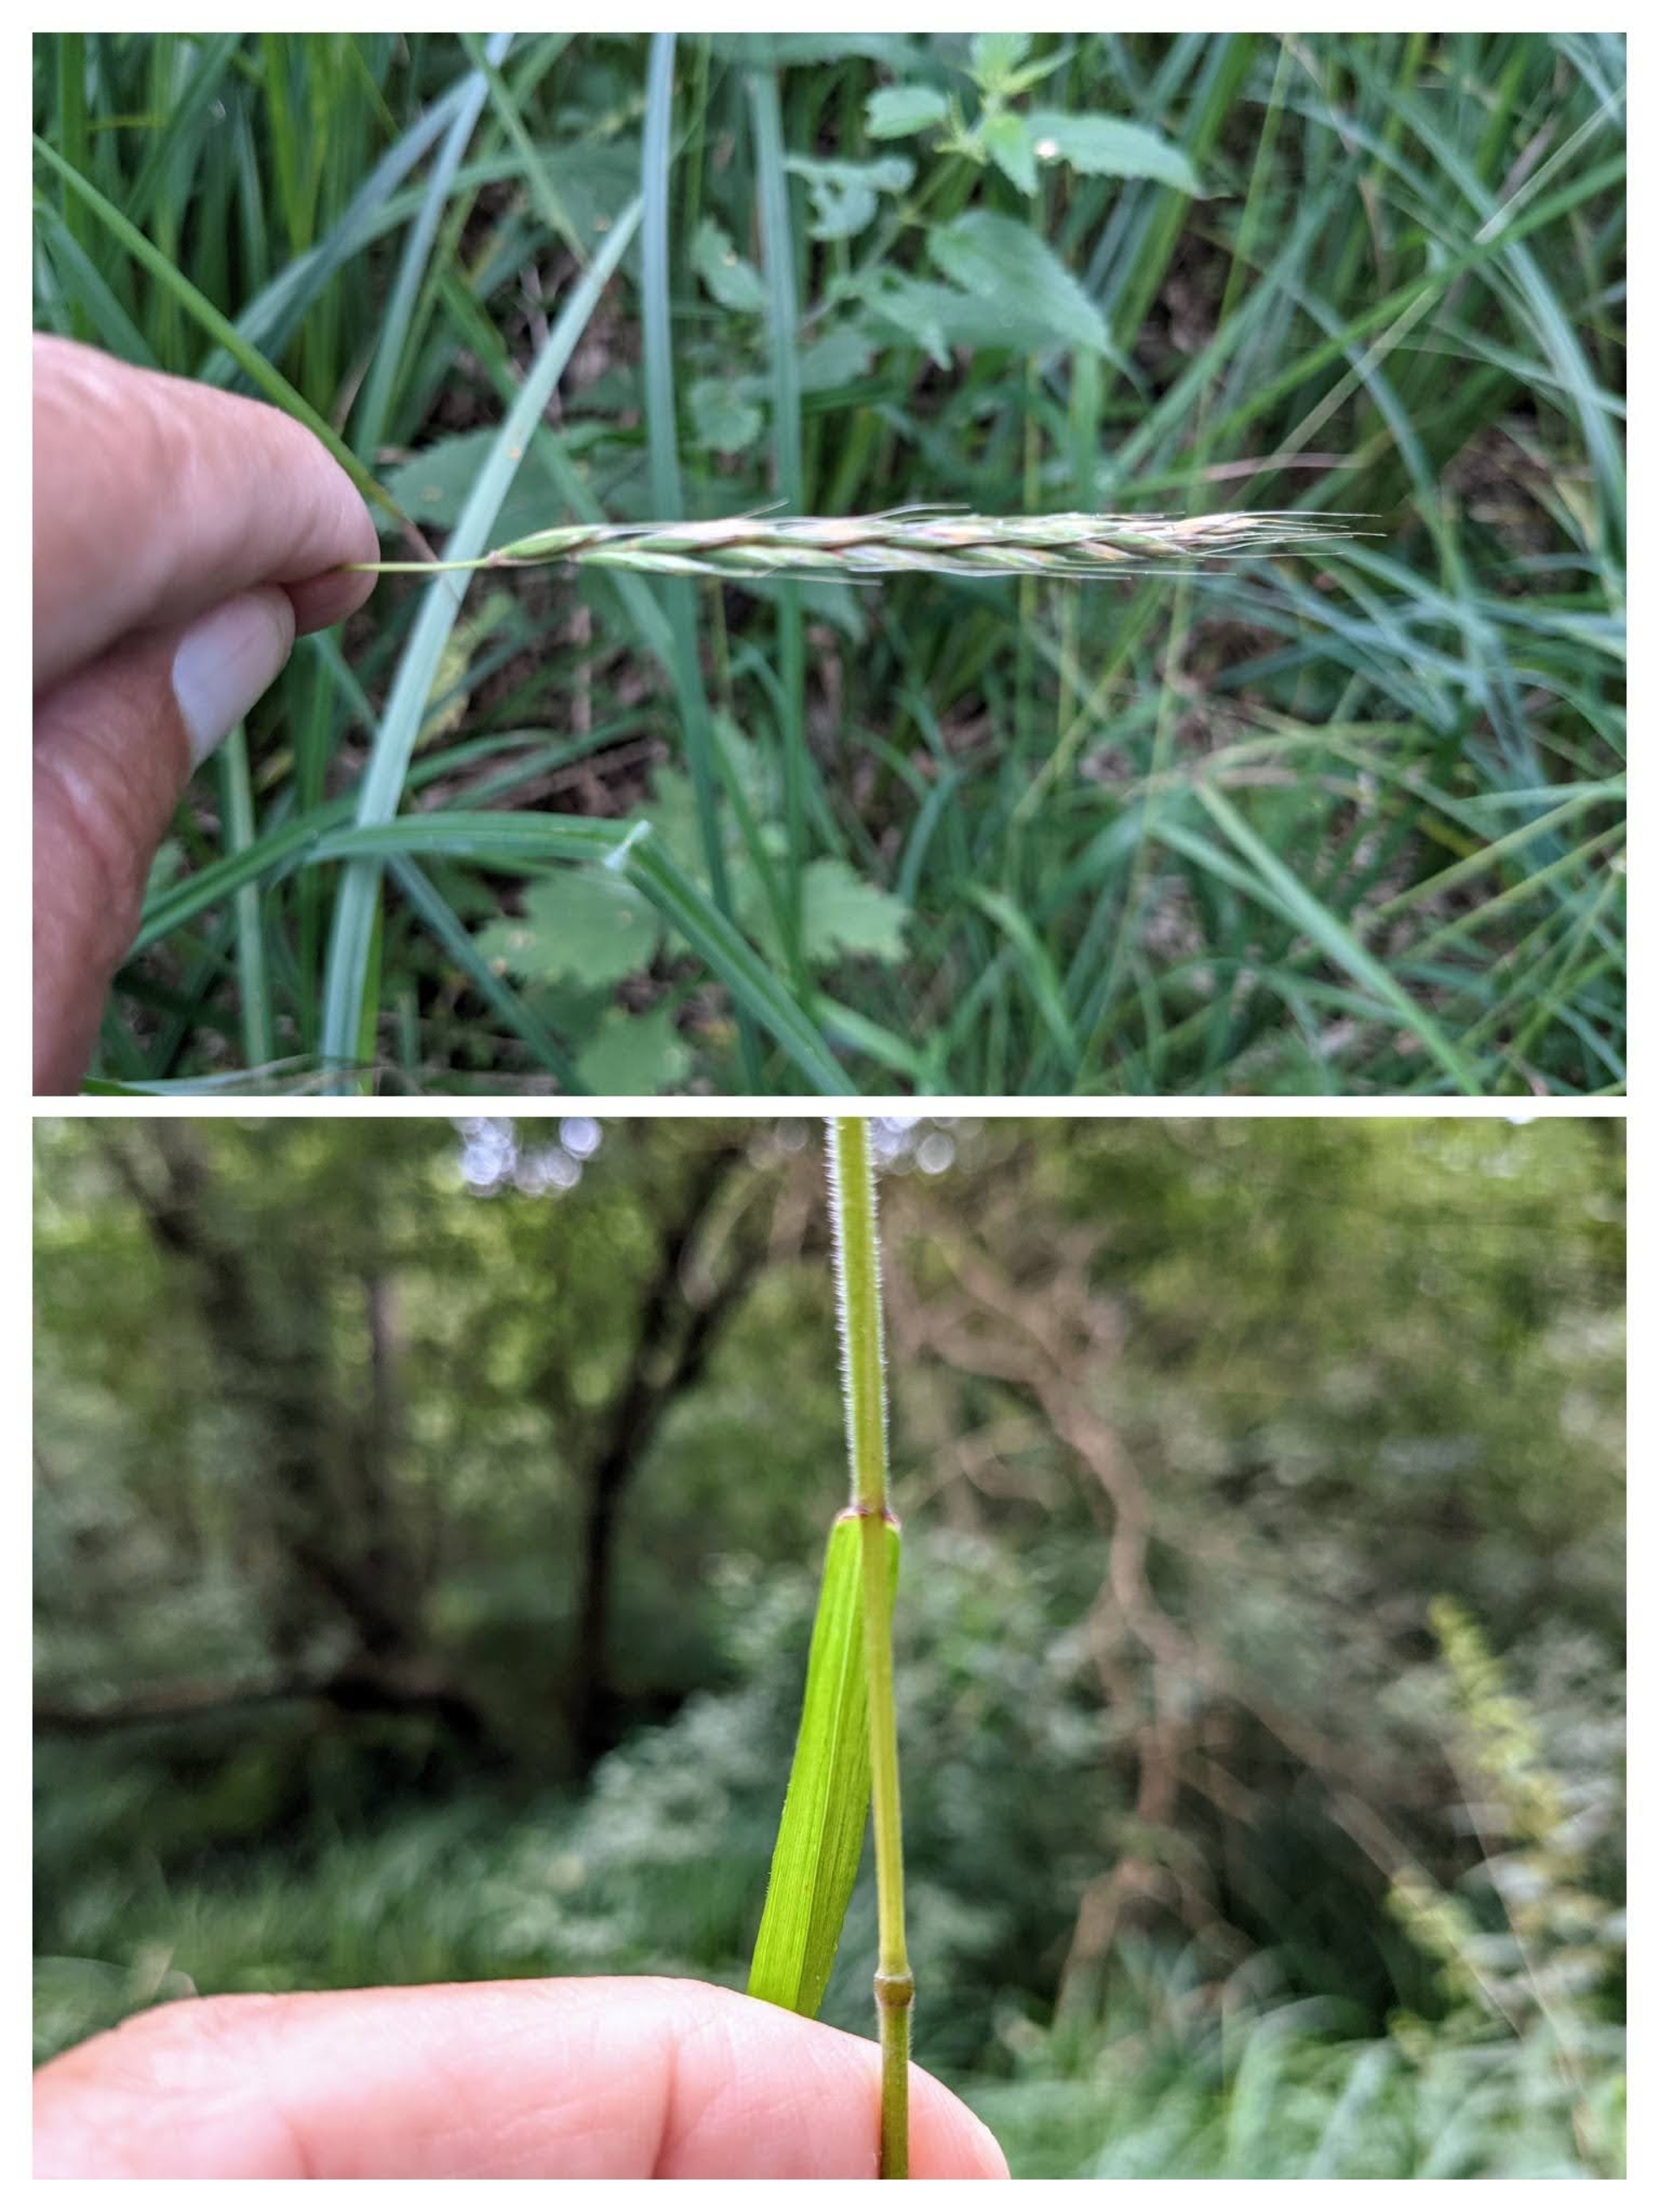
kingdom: Plantae
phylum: Tracheophyta
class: Liliopsida
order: Poales
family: Poaceae
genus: Elymus
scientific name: Elymus caninus
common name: Hundekvik
